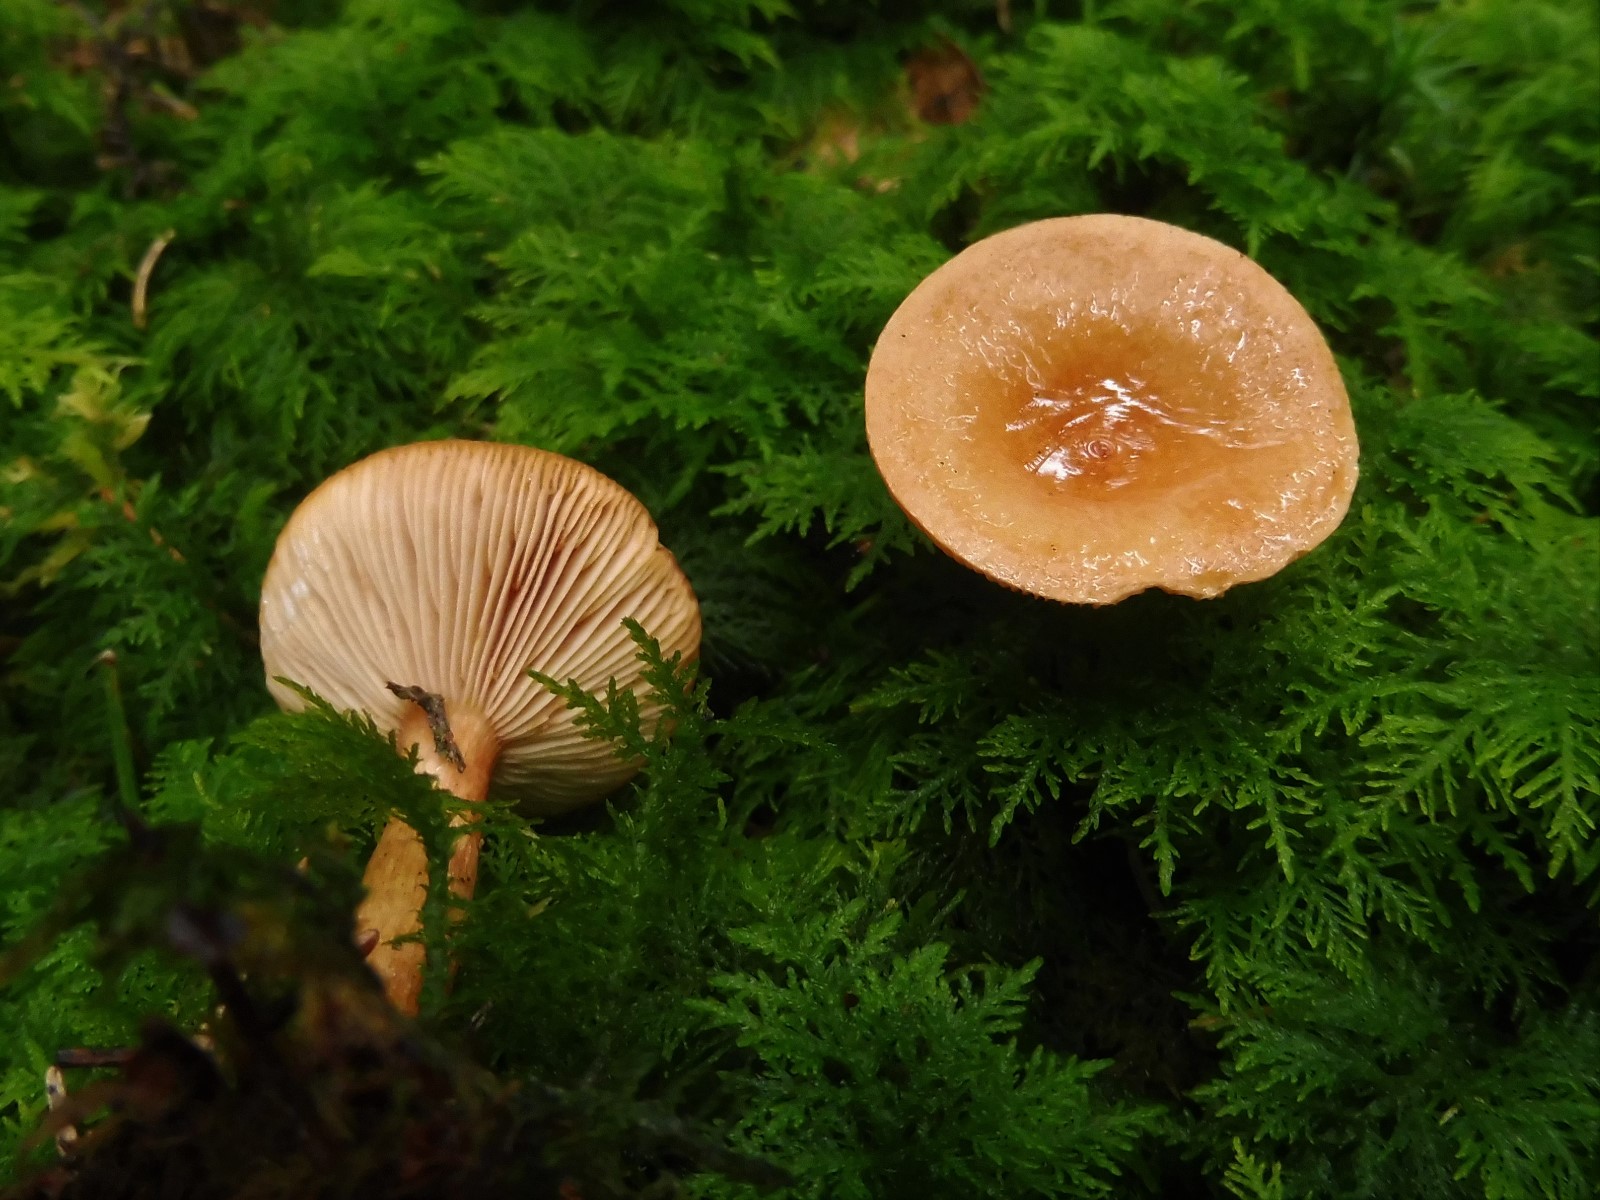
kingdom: Fungi
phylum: Basidiomycota
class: Agaricomycetes
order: Boletales
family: Hygrophoropsidaceae
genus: Hygrophoropsis
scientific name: Hygrophoropsis aurantiaca
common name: almindelig orangekantarel
